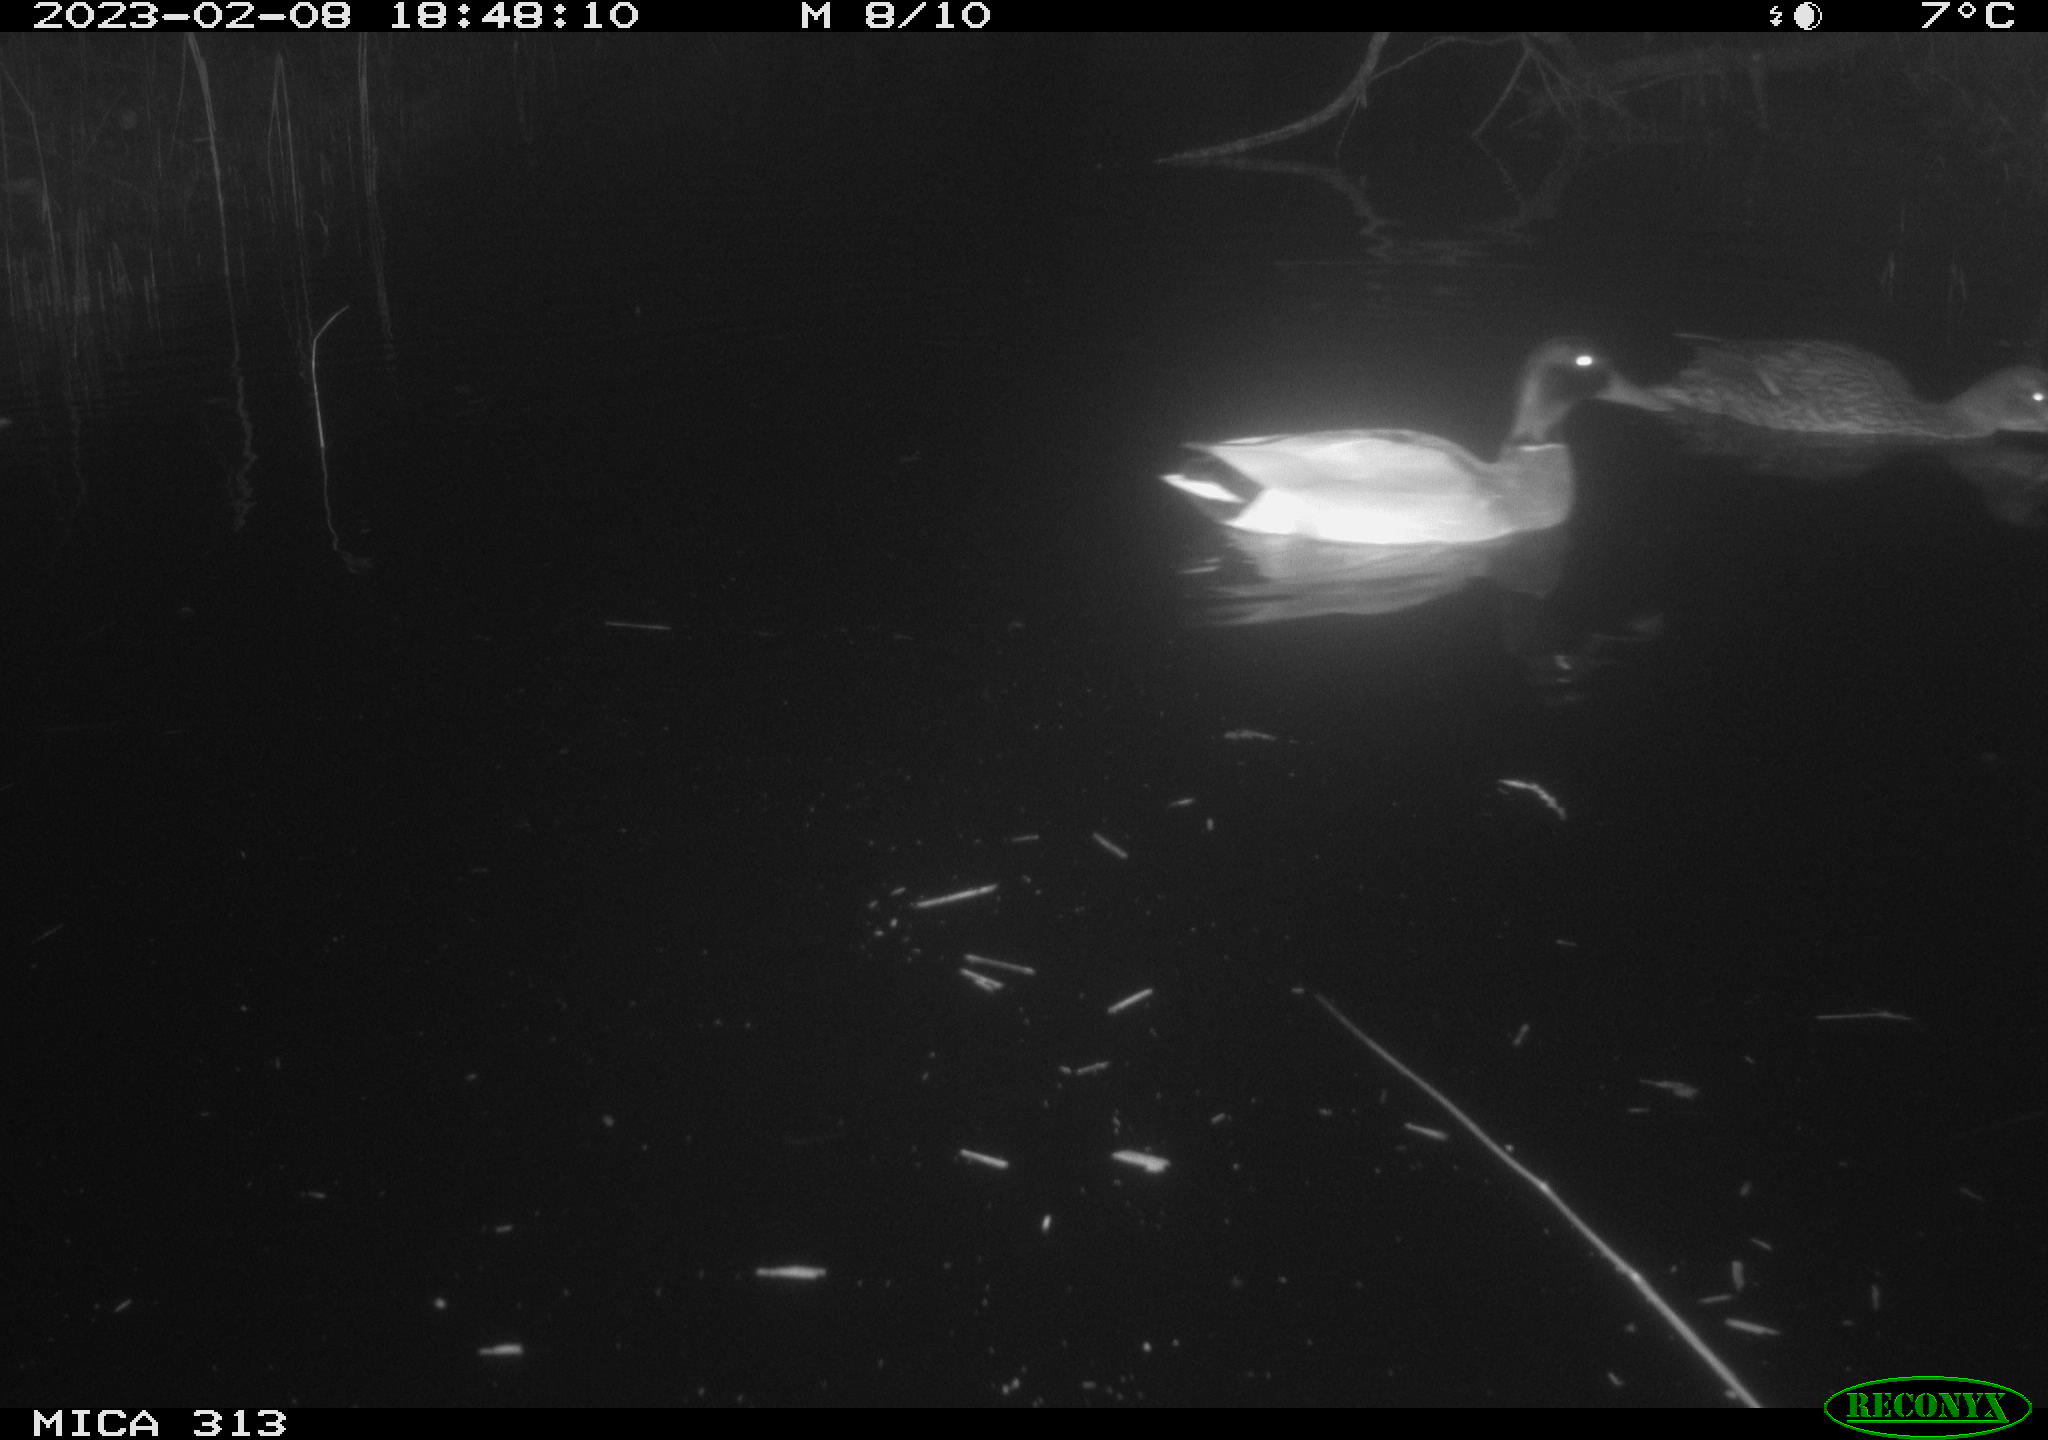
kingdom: Animalia
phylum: Chordata
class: Aves
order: Anseriformes
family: Anatidae
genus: Anas
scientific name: Anas
